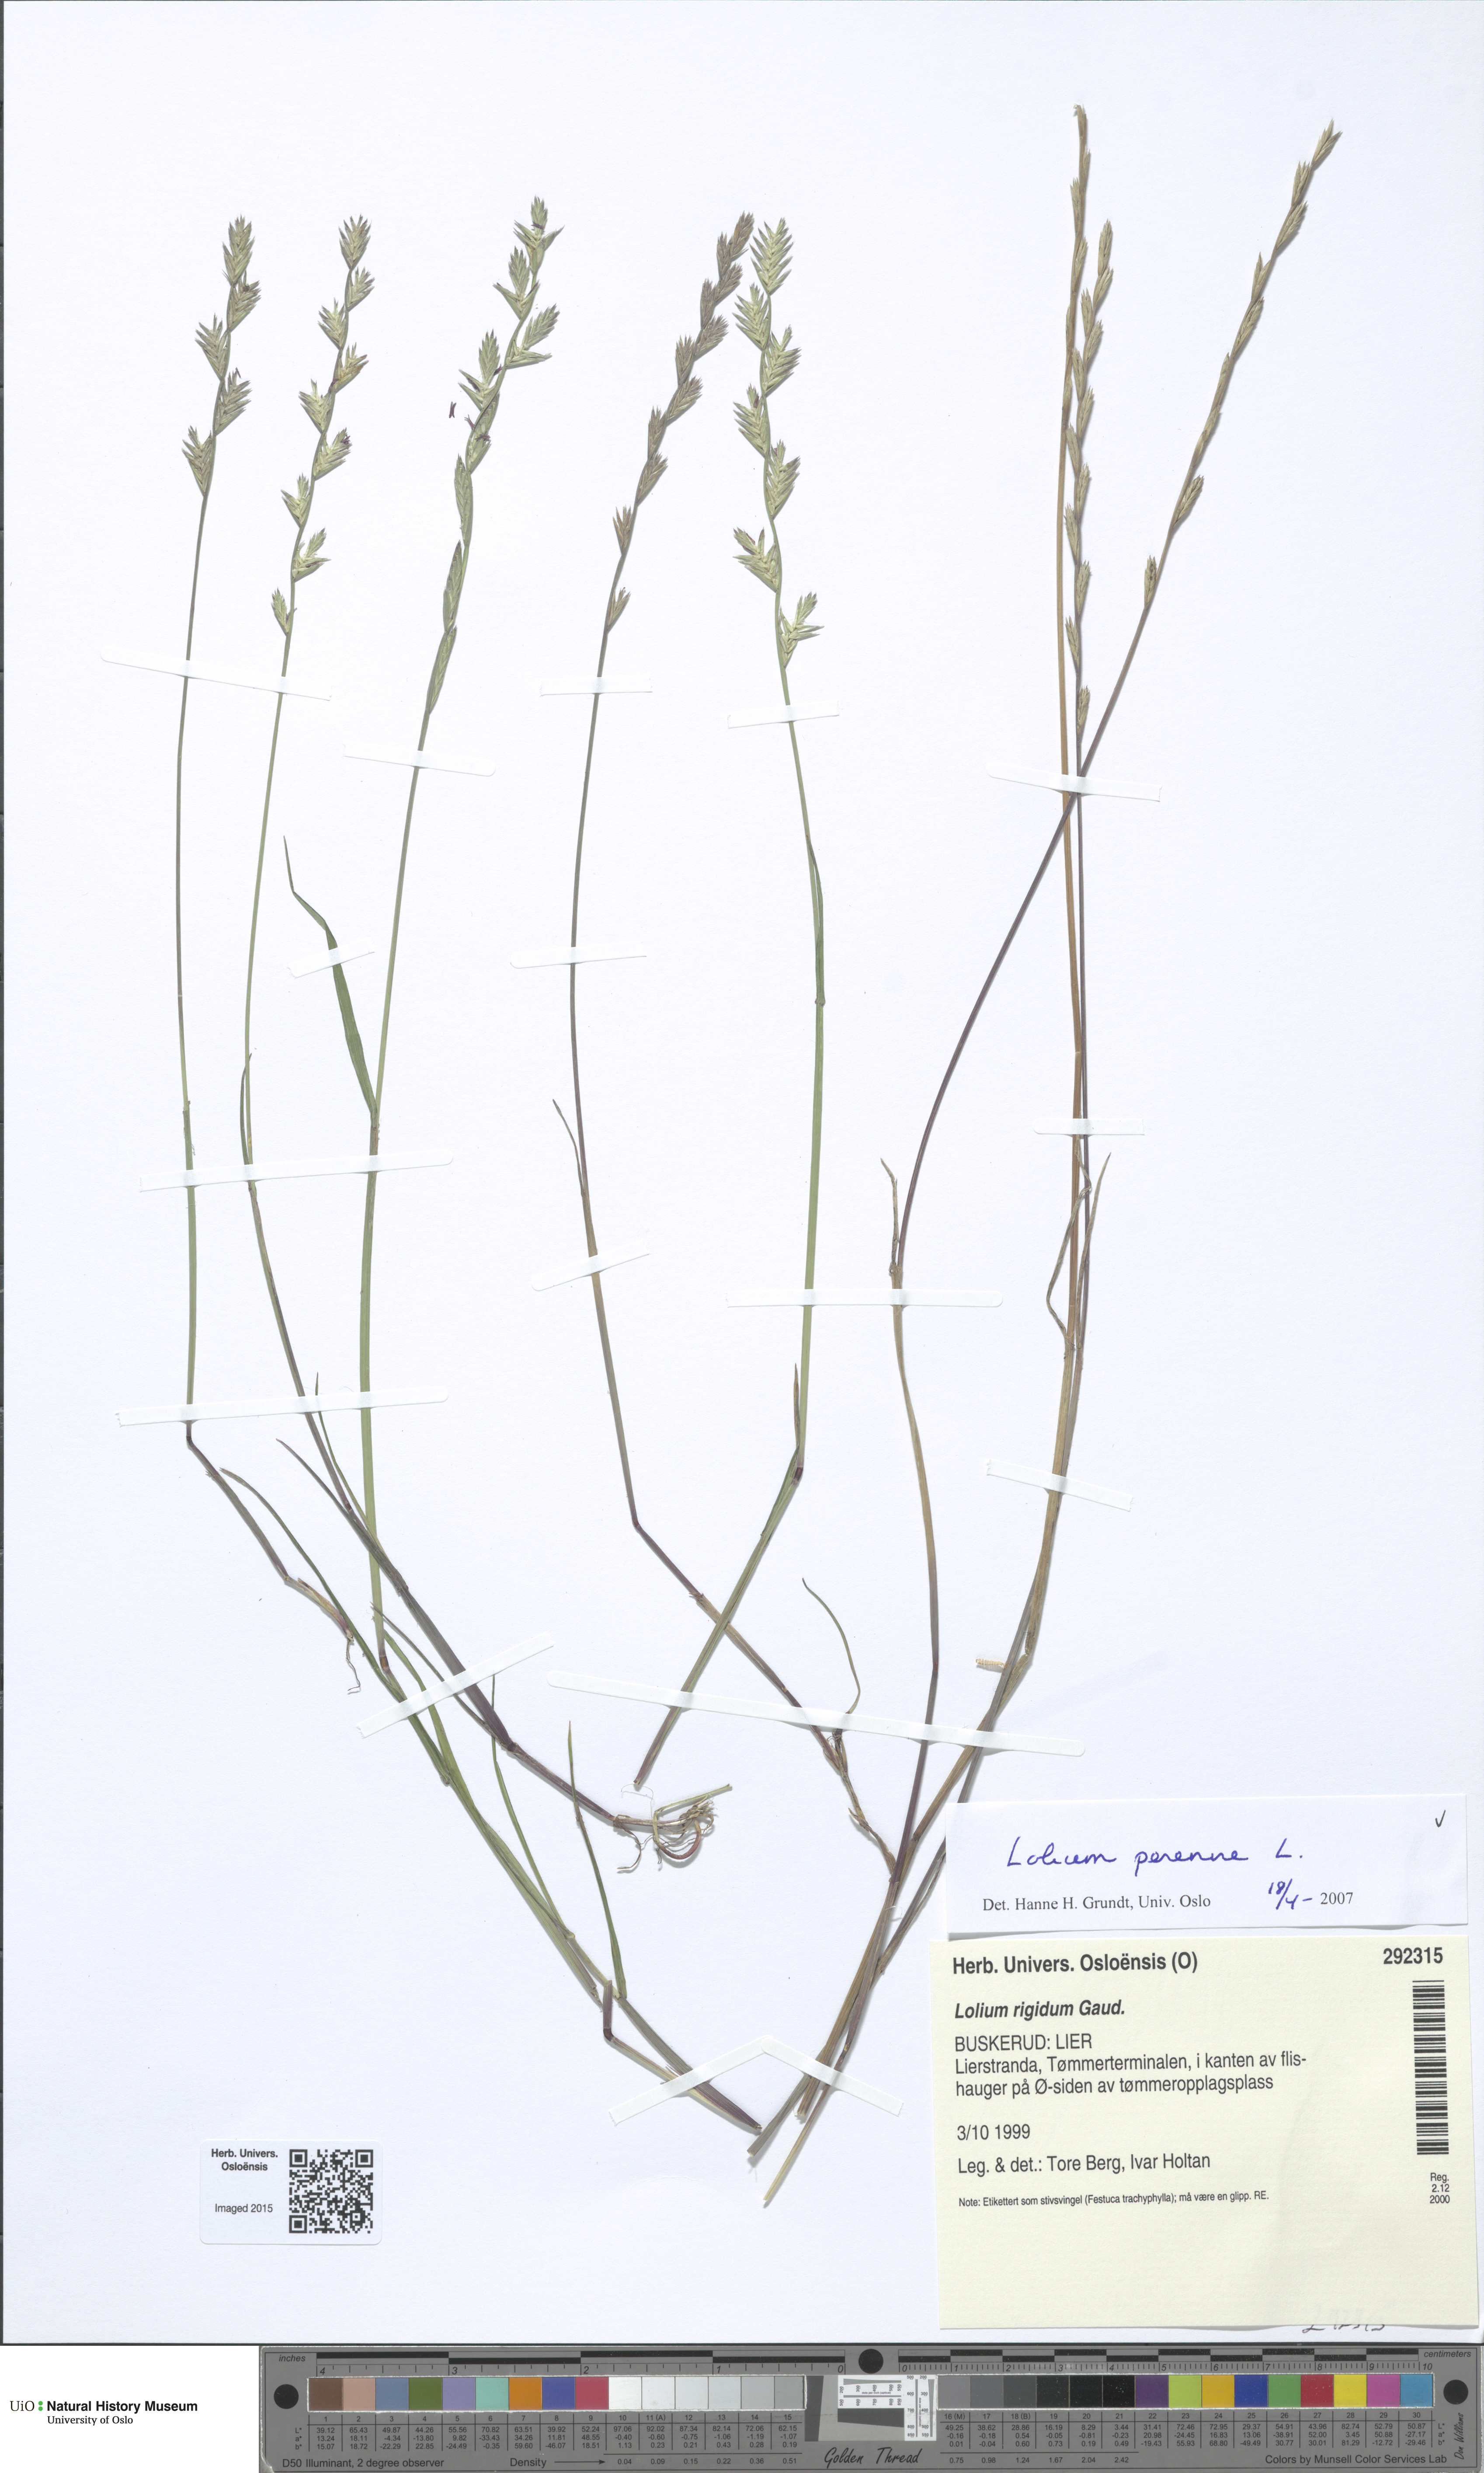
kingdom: Plantae
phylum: Tracheophyta
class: Liliopsida
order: Poales
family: Poaceae
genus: Lolium
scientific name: Lolium perenne
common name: Perennial ryegrass
